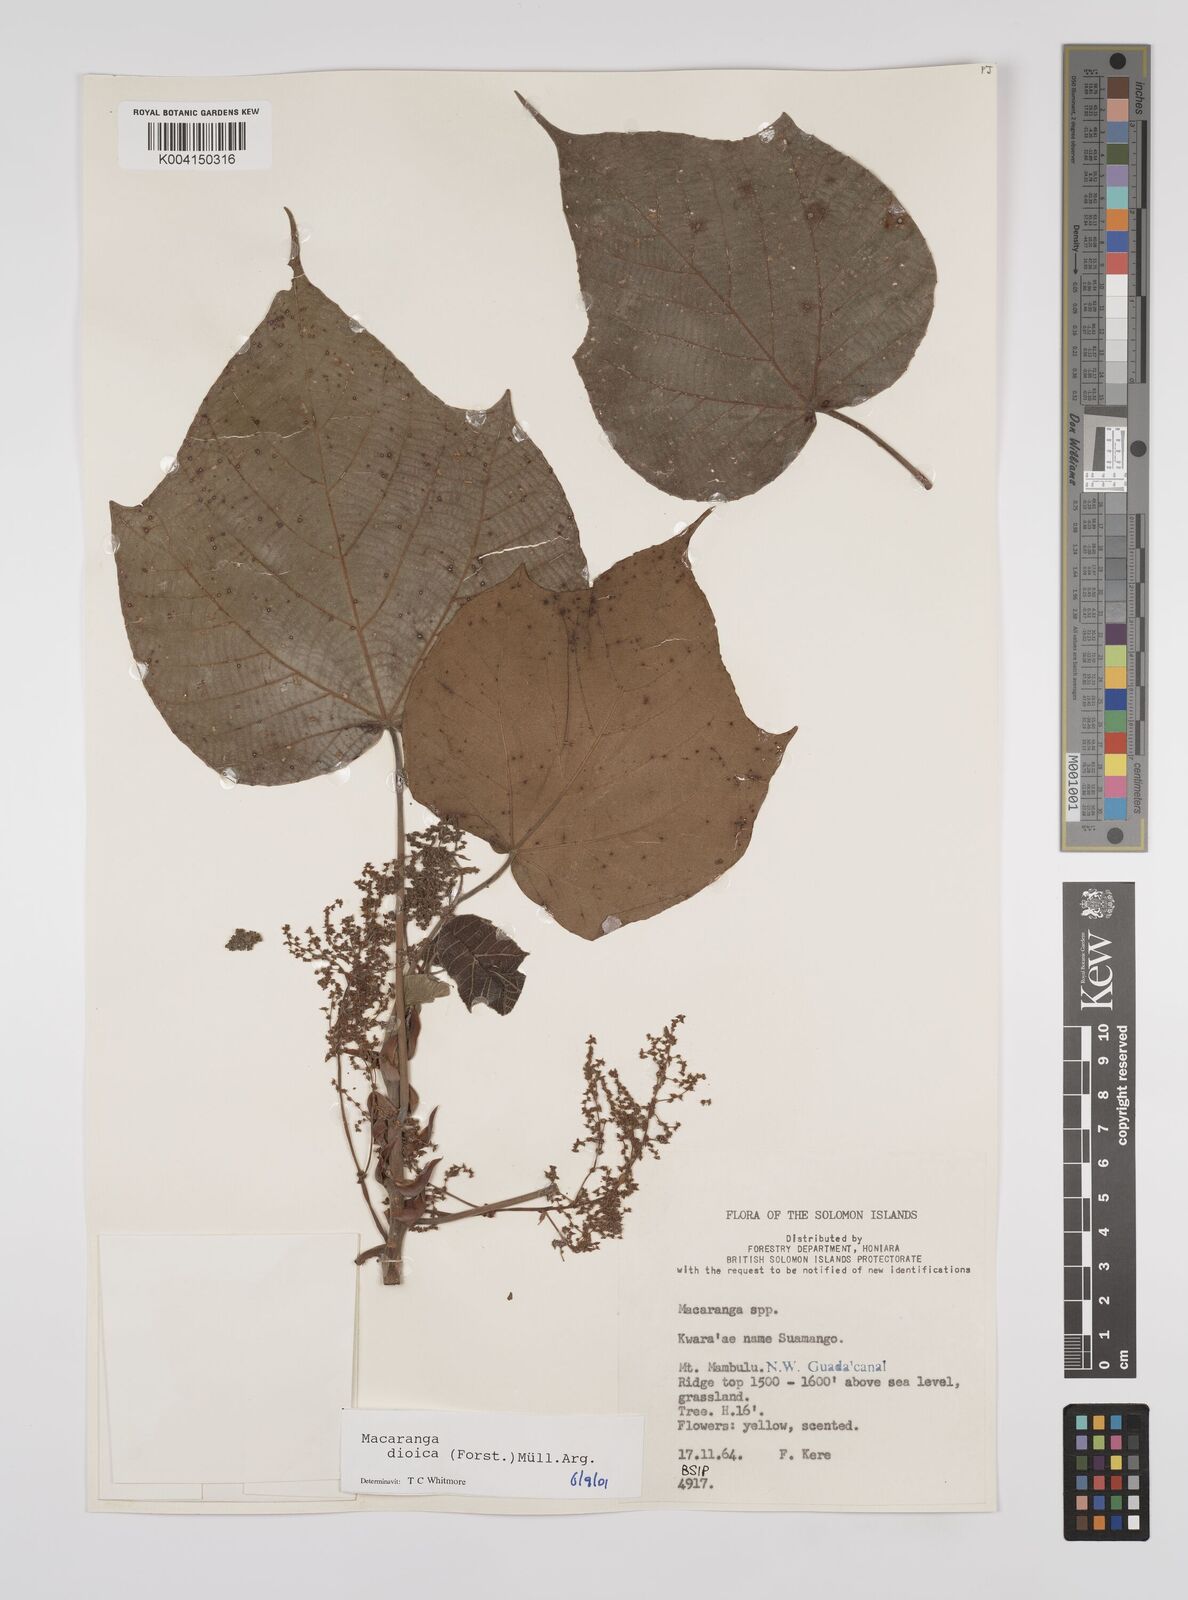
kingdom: Plantae
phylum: Tracheophyta
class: Magnoliopsida
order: Malpighiales
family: Euphorbiaceae
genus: Macaranga
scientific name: Macaranga dioica
